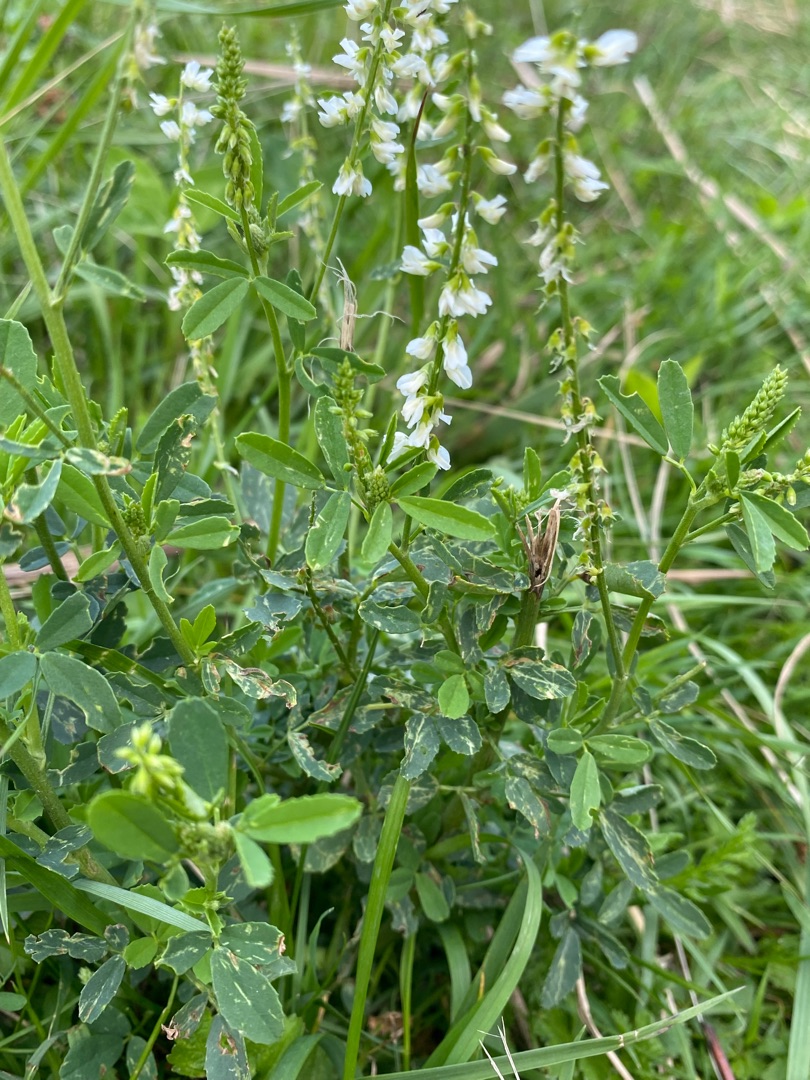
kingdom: Plantae
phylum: Tracheophyta
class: Magnoliopsida
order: Fabales
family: Fabaceae
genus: Melilotus
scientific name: Melilotus albus
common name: Hvid stenkløver
